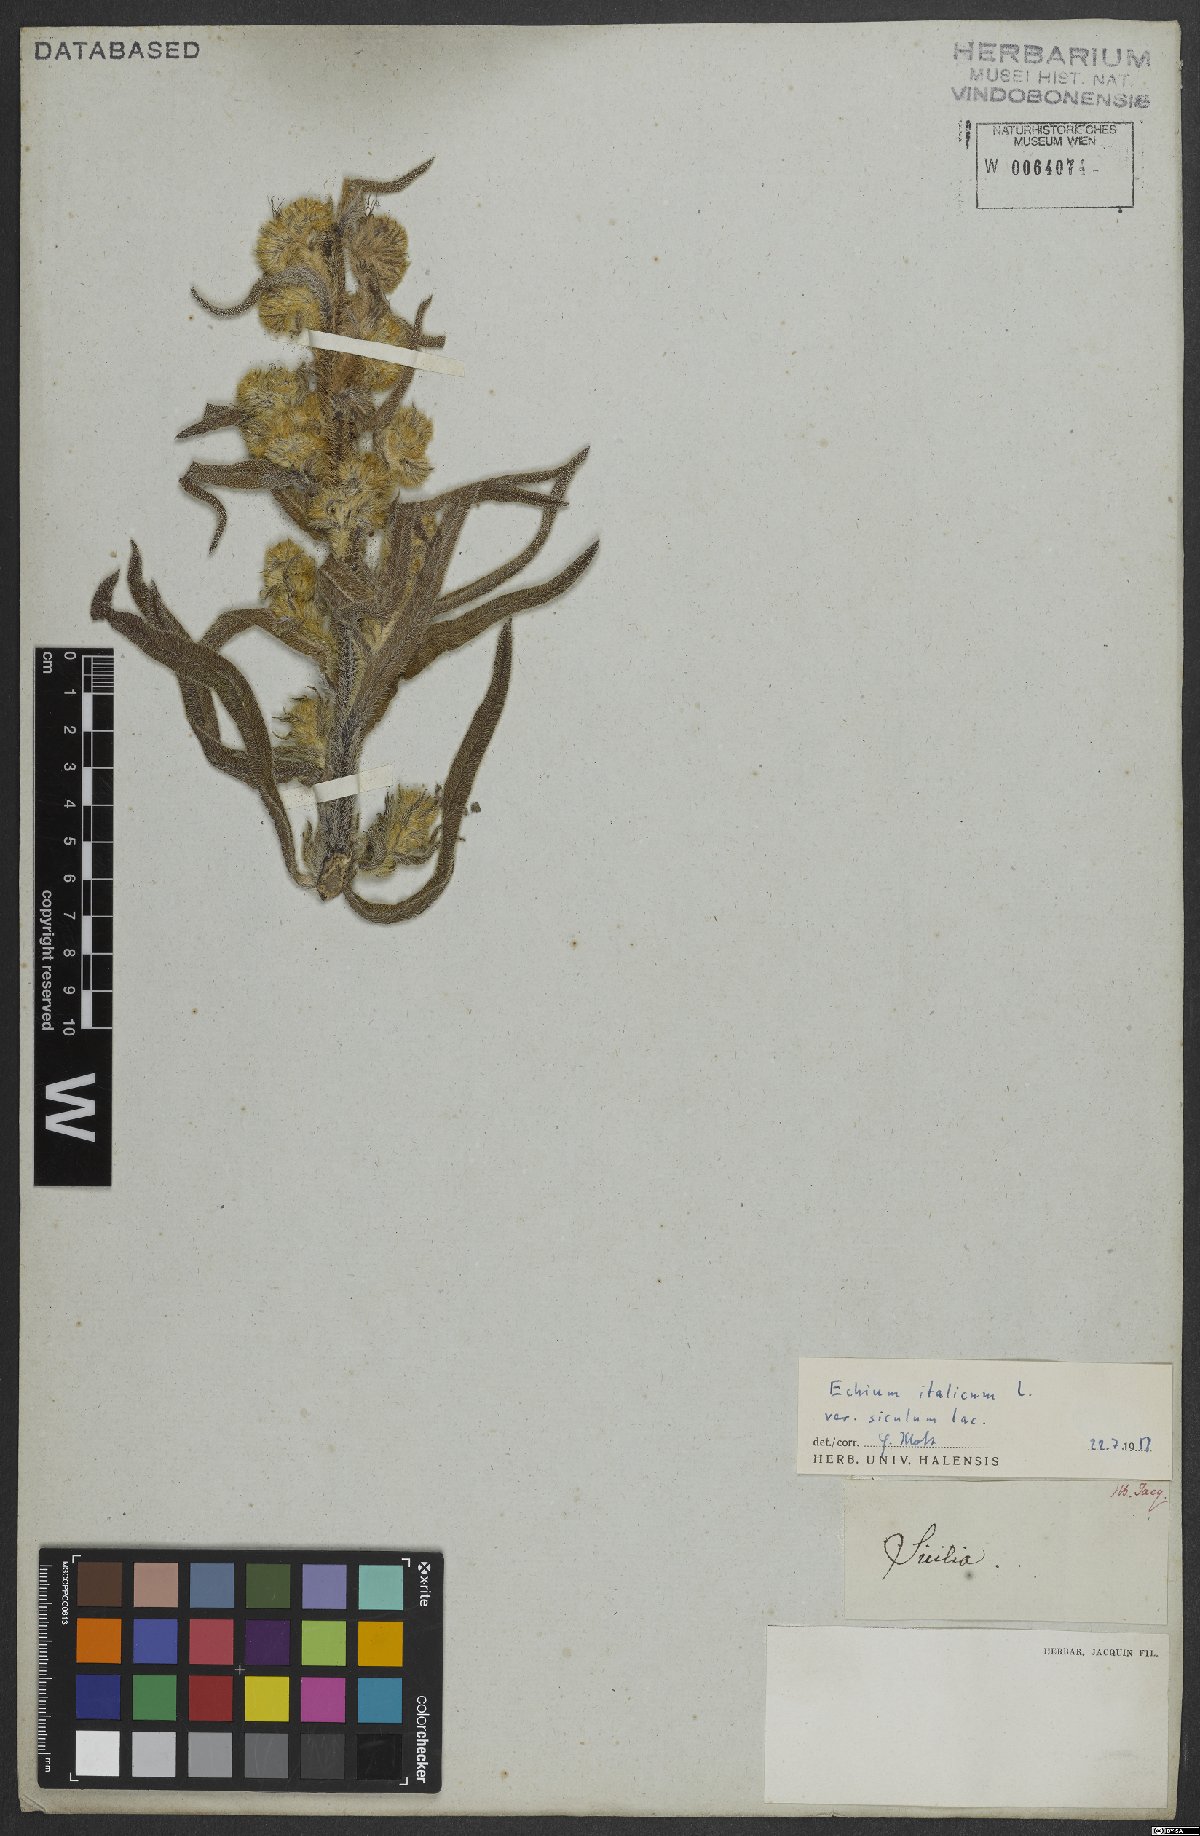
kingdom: Plantae
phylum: Tracheophyta
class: Magnoliopsida
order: Boraginales
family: Boraginaceae
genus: Echium
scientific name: Echium italicum
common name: Italian viper's bugloss
